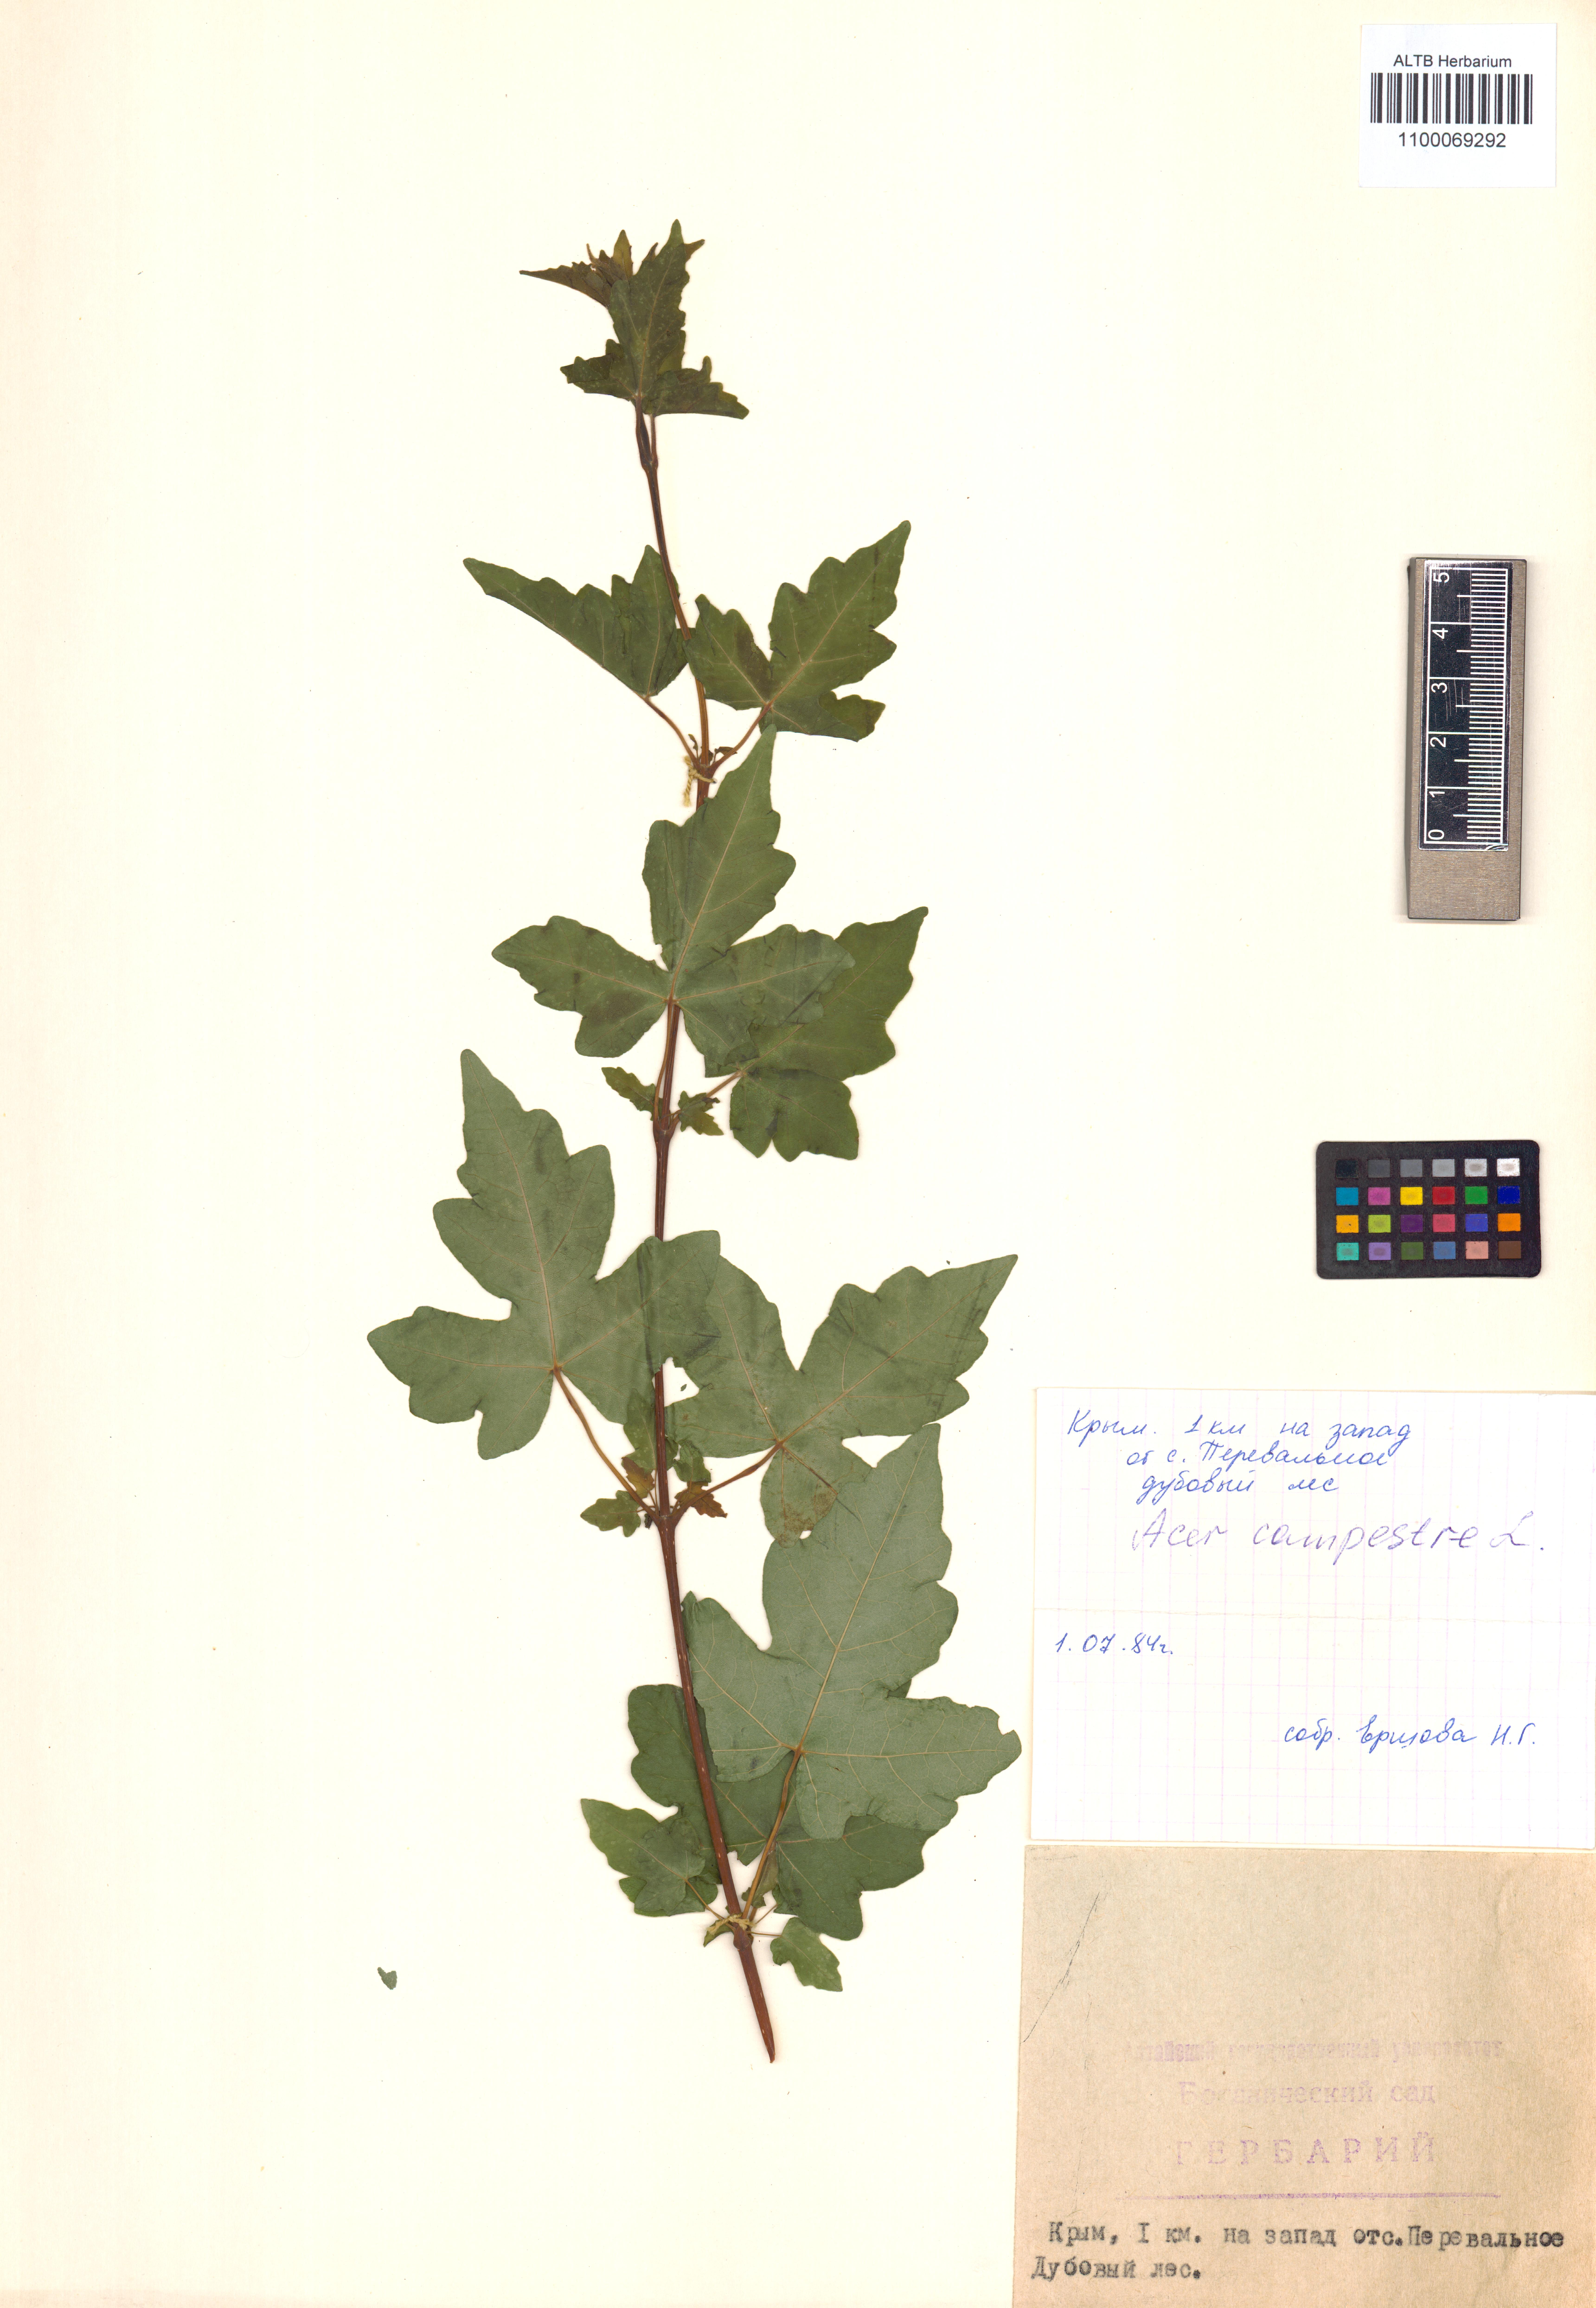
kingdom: Plantae
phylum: Tracheophyta
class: Magnoliopsida
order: Sapindales
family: Sapindaceae
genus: Acer
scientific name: Acer campestre
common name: Field maple
